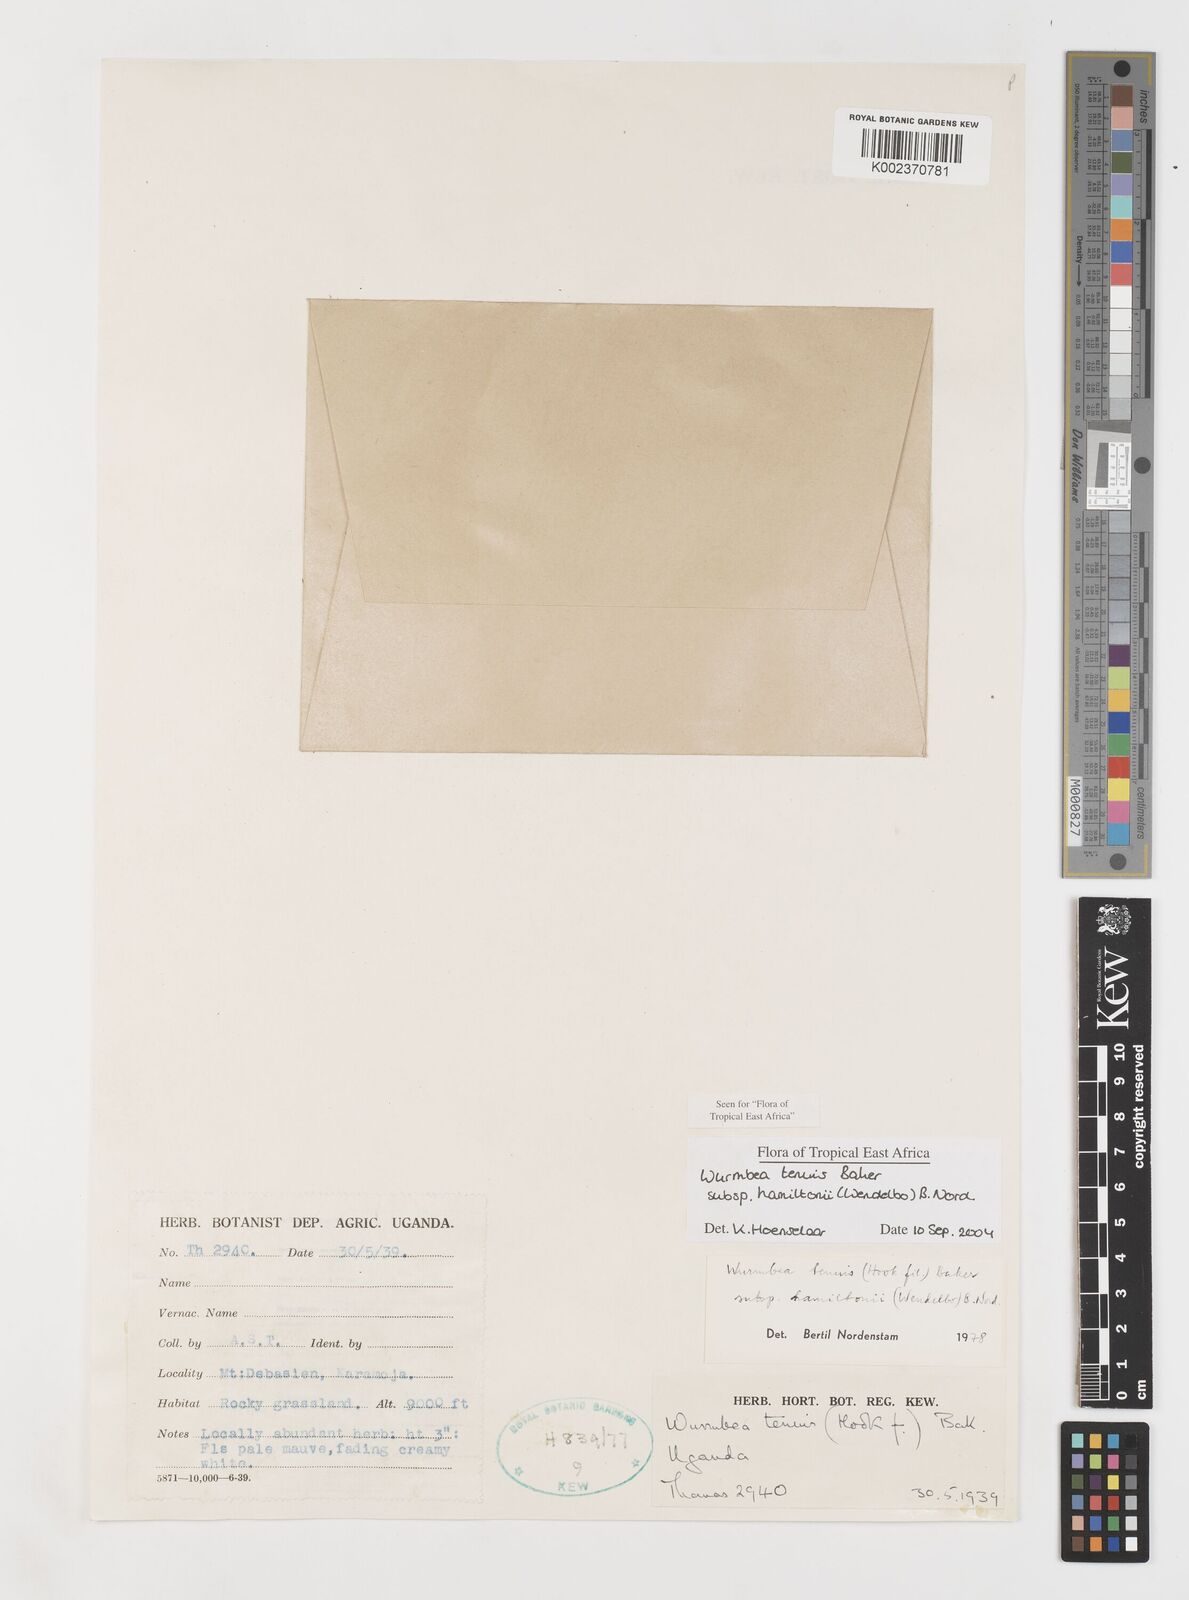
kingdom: Plantae
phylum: Tracheophyta
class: Liliopsida
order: Liliales
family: Colchicaceae
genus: Wurmbea
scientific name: Wurmbea tenuis
